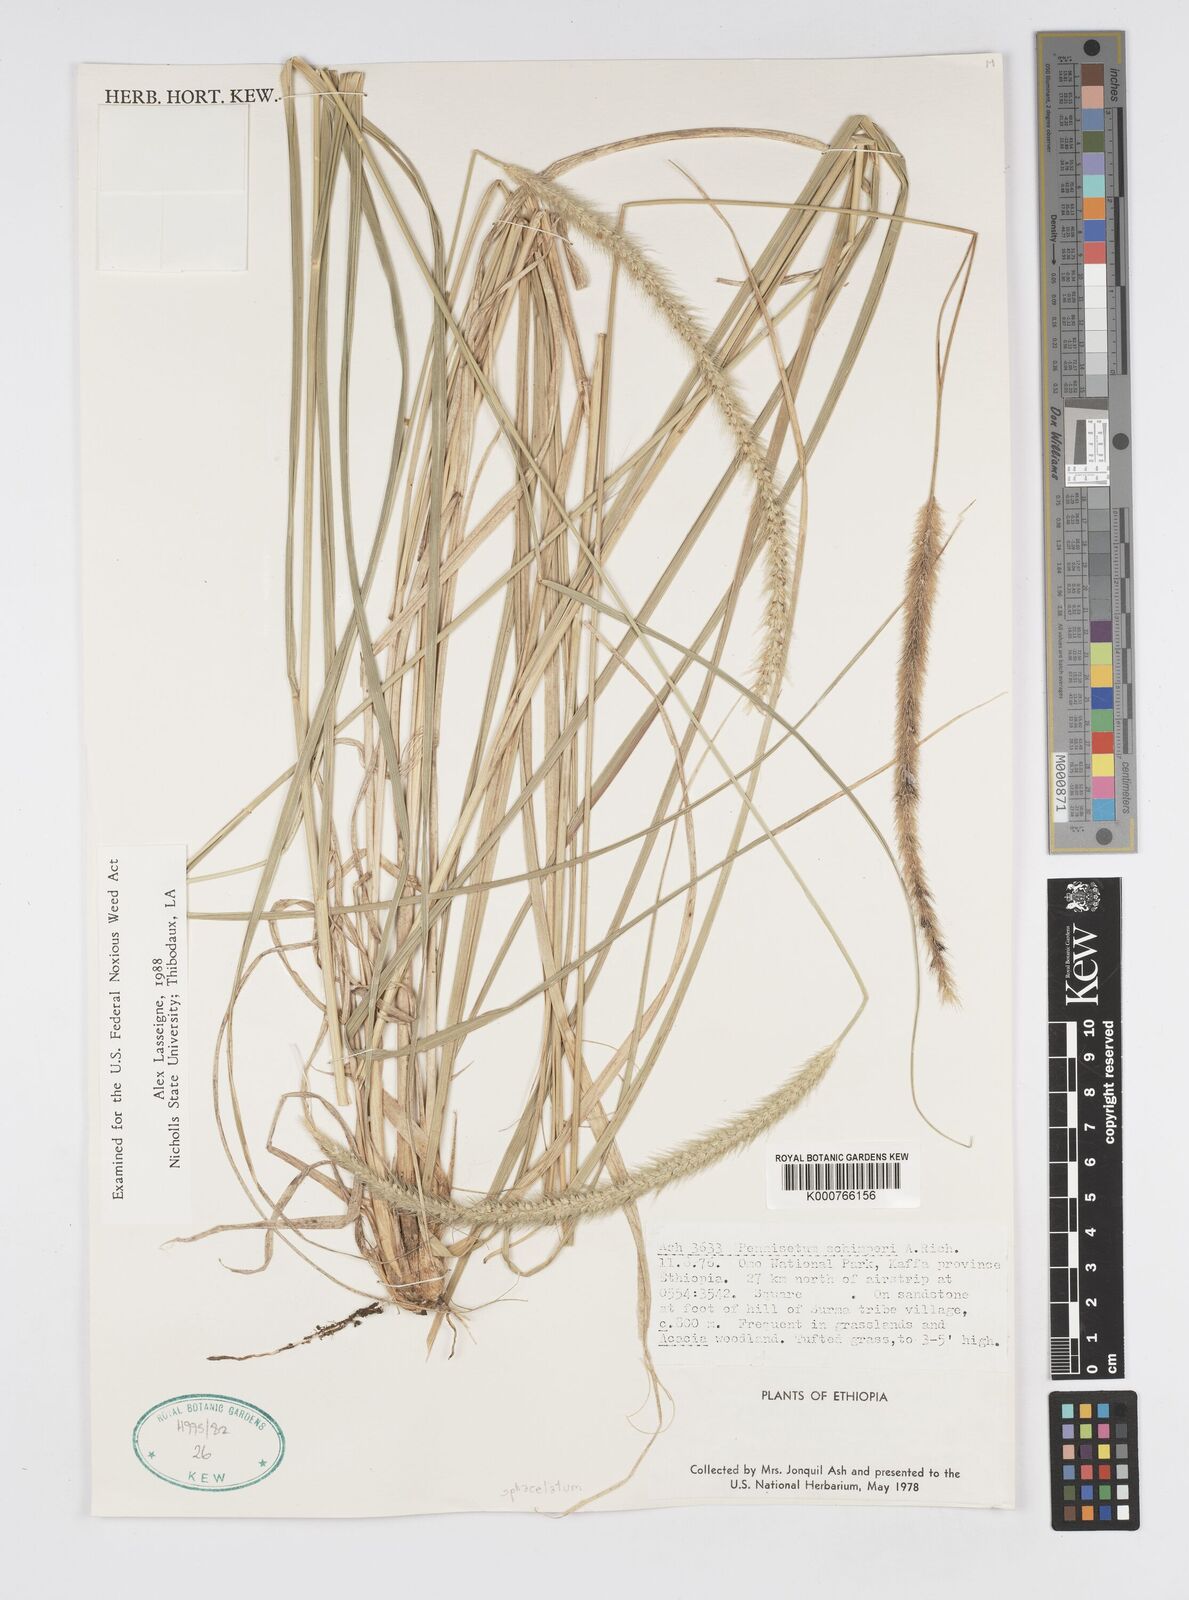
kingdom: Plantae
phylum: Tracheophyta
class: Liliopsida
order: Poales
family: Poaceae
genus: Cenchrus
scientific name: Cenchrus sphacelatus
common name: Bulgras
